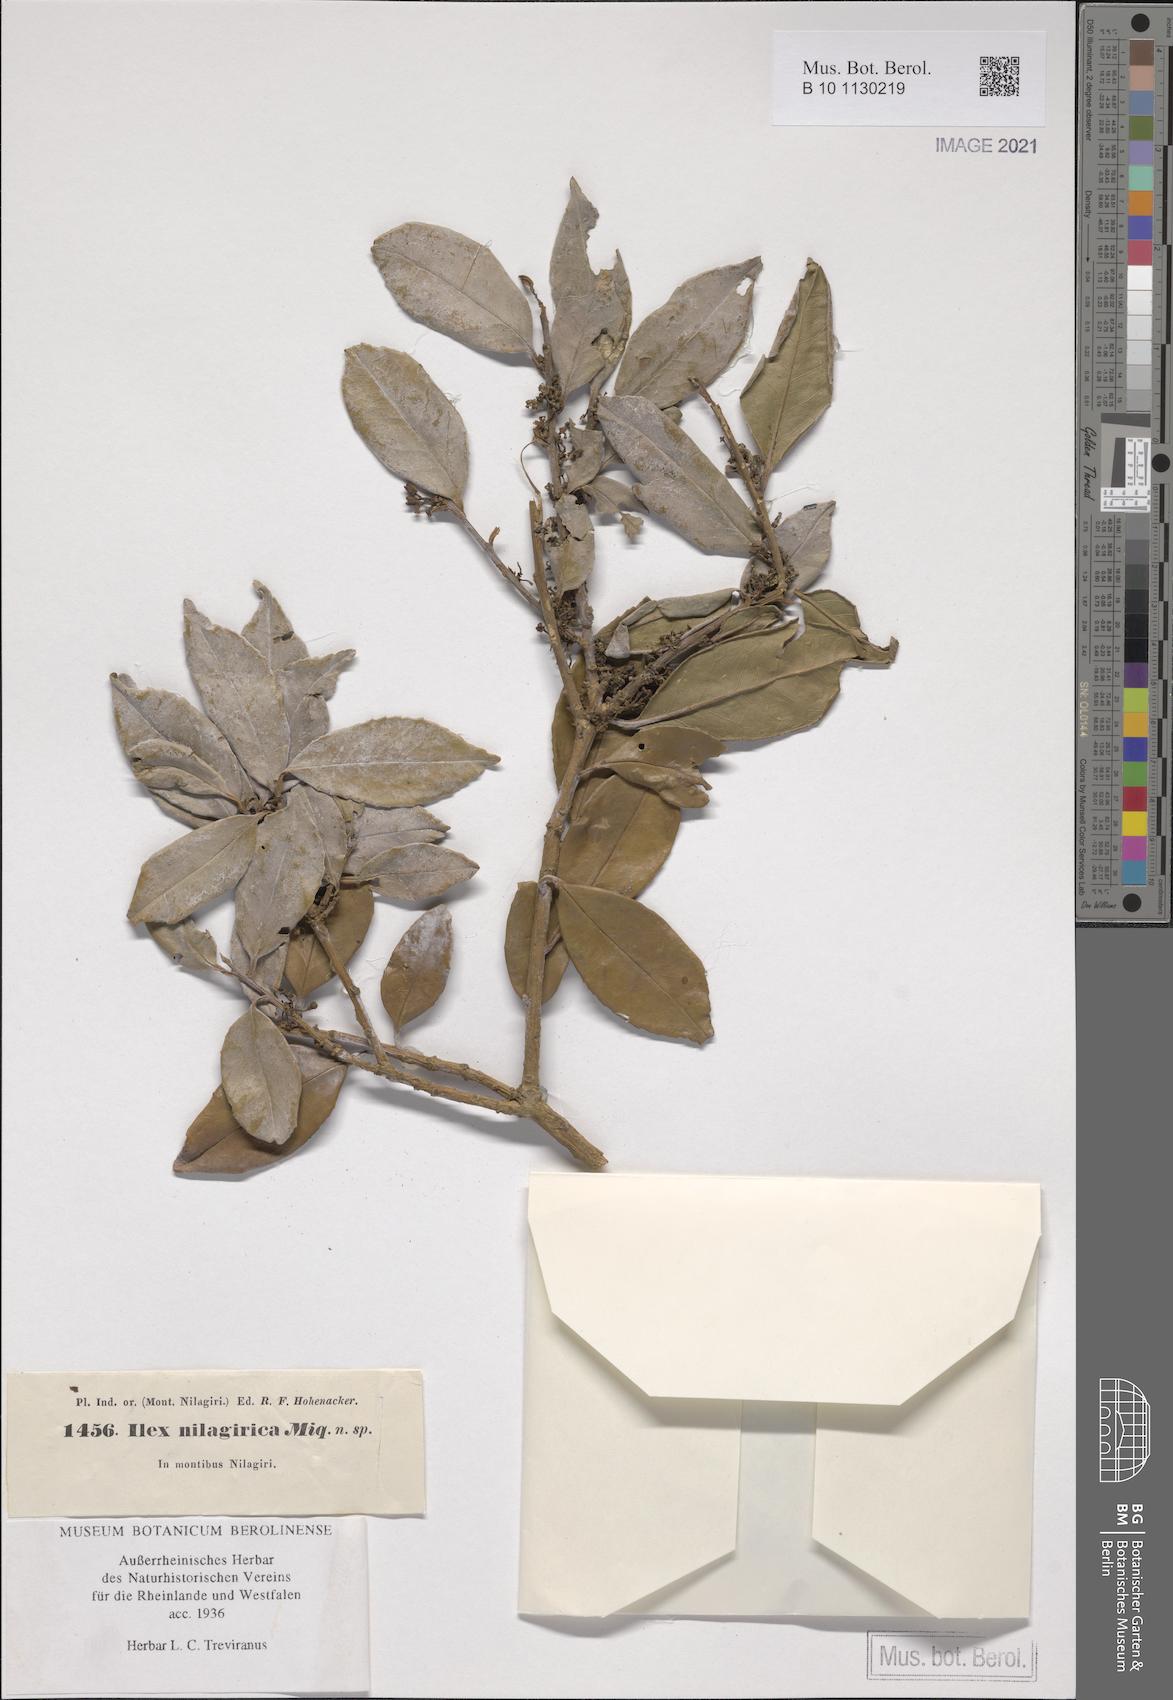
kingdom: Plantae
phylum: Tracheophyta
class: Magnoliopsida
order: Aquifoliales
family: Aquifoliaceae
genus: Ilex
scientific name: Ilex denticulata
